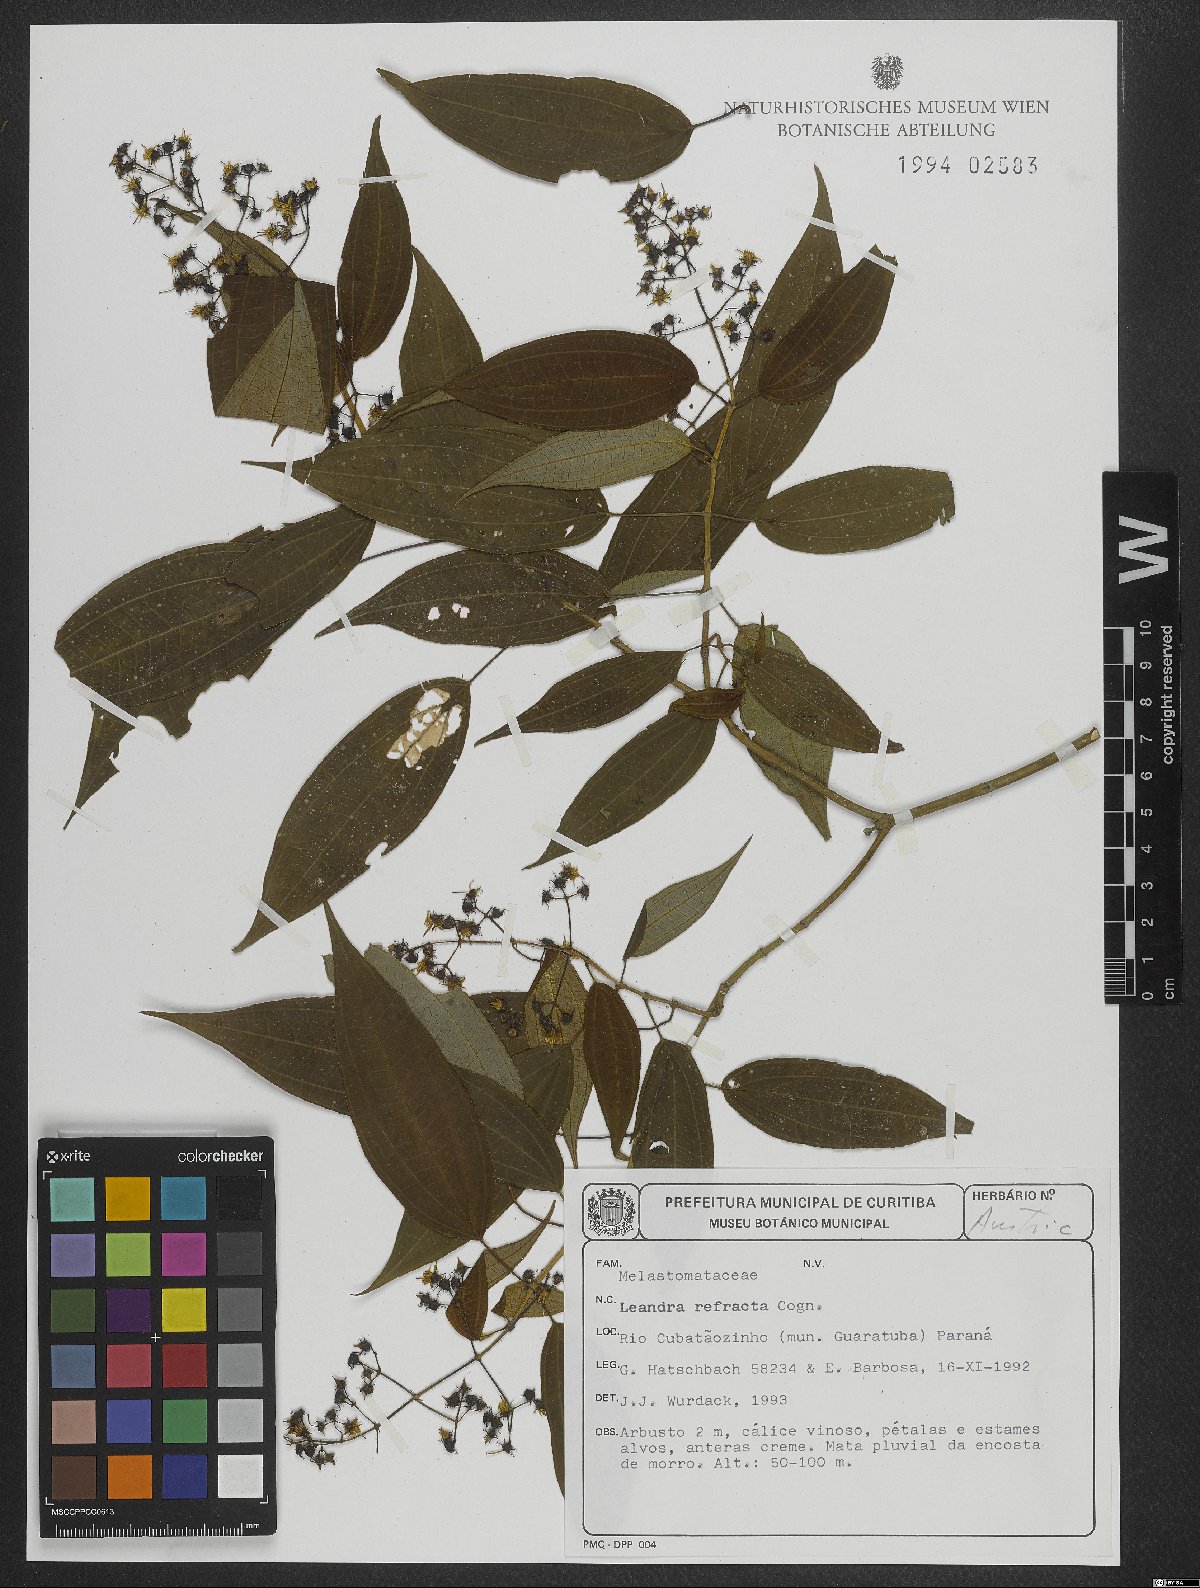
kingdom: Plantae
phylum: Tracheophyta
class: Magnoliopsida
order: Myrtales
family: Melastomataceae
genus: Miconia
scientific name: Miconia refracta
